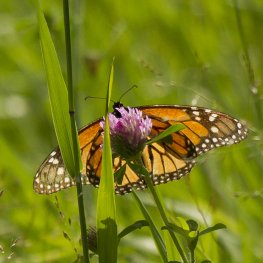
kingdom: Animalia
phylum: Arthropoda
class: Insecta
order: Lepidoptera
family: Nymphalidae
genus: Danaus
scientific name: Danaus plexippus
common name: Monarch
